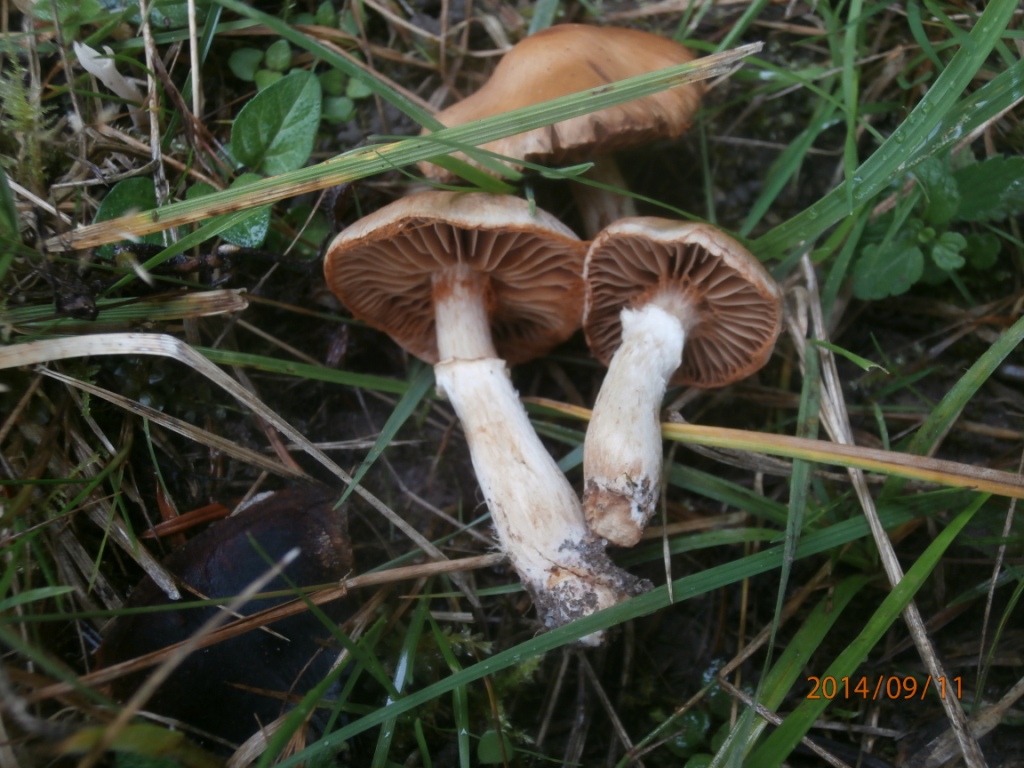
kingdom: Fungi
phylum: Basidiomycota
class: Agaricomycetes
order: Agaricales
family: Cortinariaceae
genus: Cortinarius
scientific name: Cortinarius torvus
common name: champignonagtig slørhat
